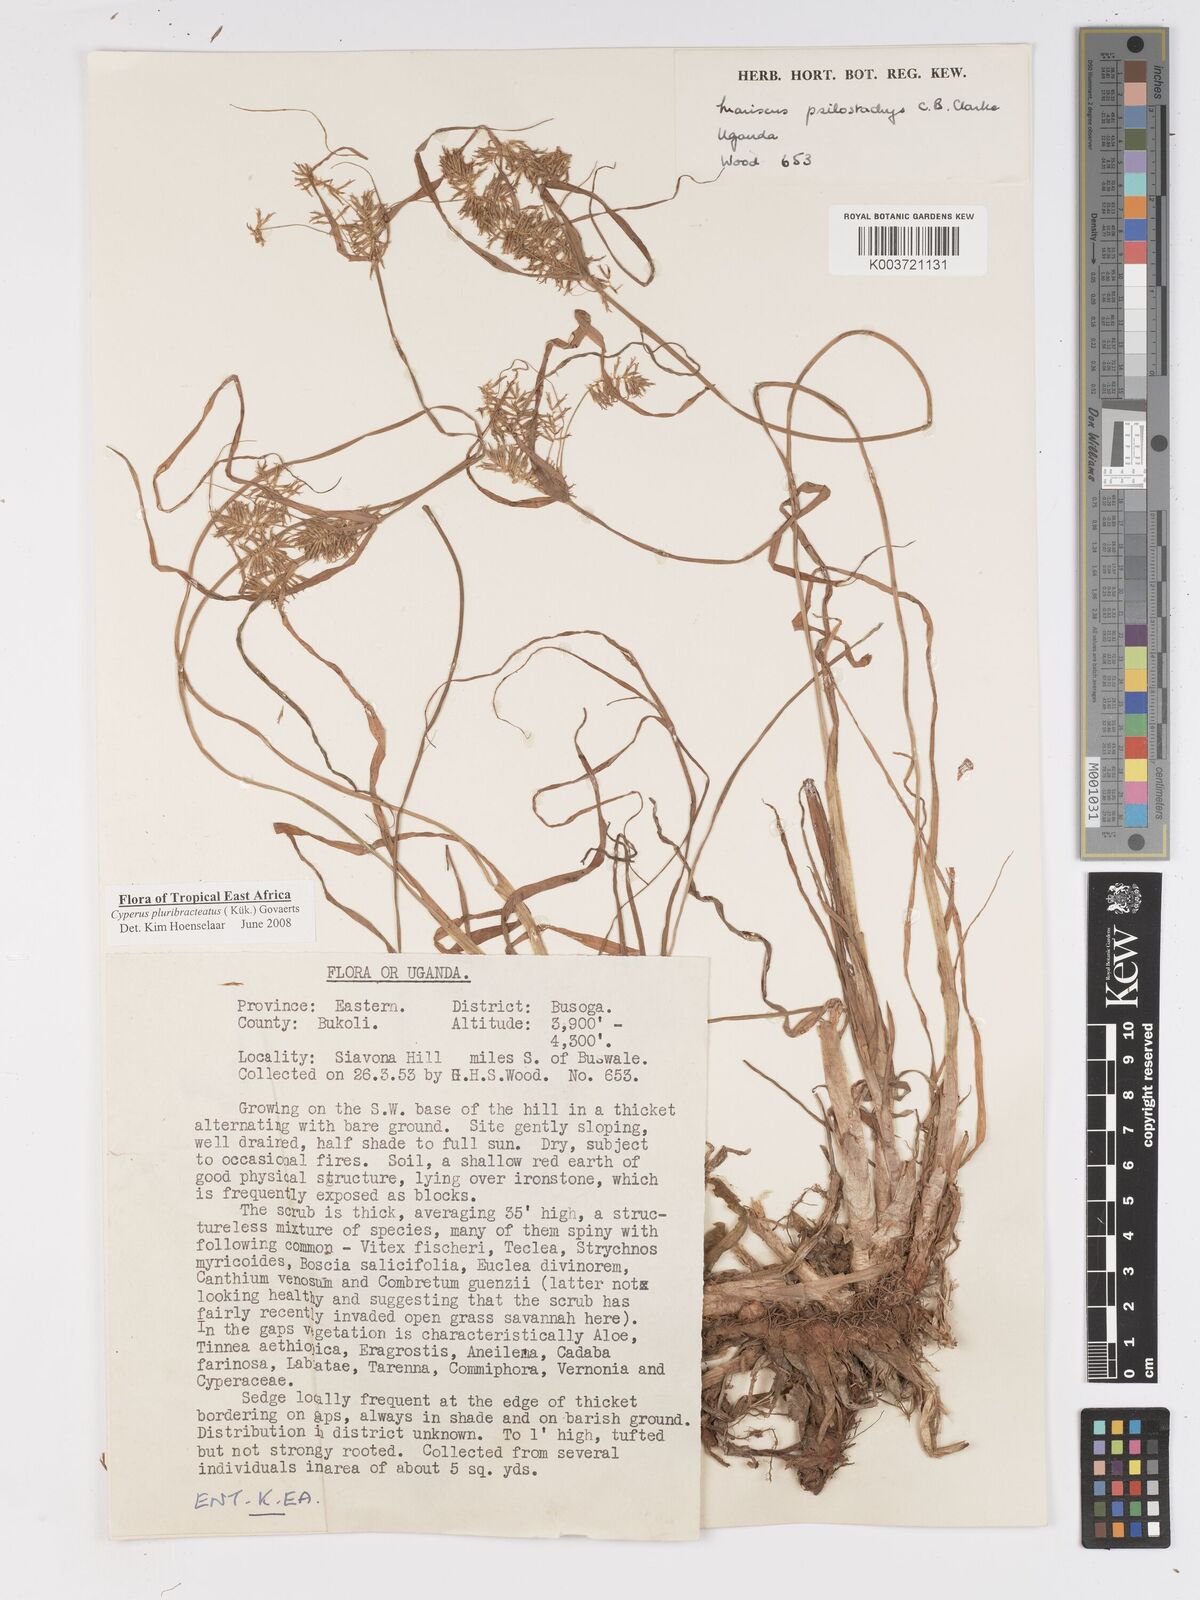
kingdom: Plantae
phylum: Tracheophyta
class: Liliopsida
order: Poales
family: Cyperaceae
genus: Cyperus
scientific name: Cyperus trigonellus
